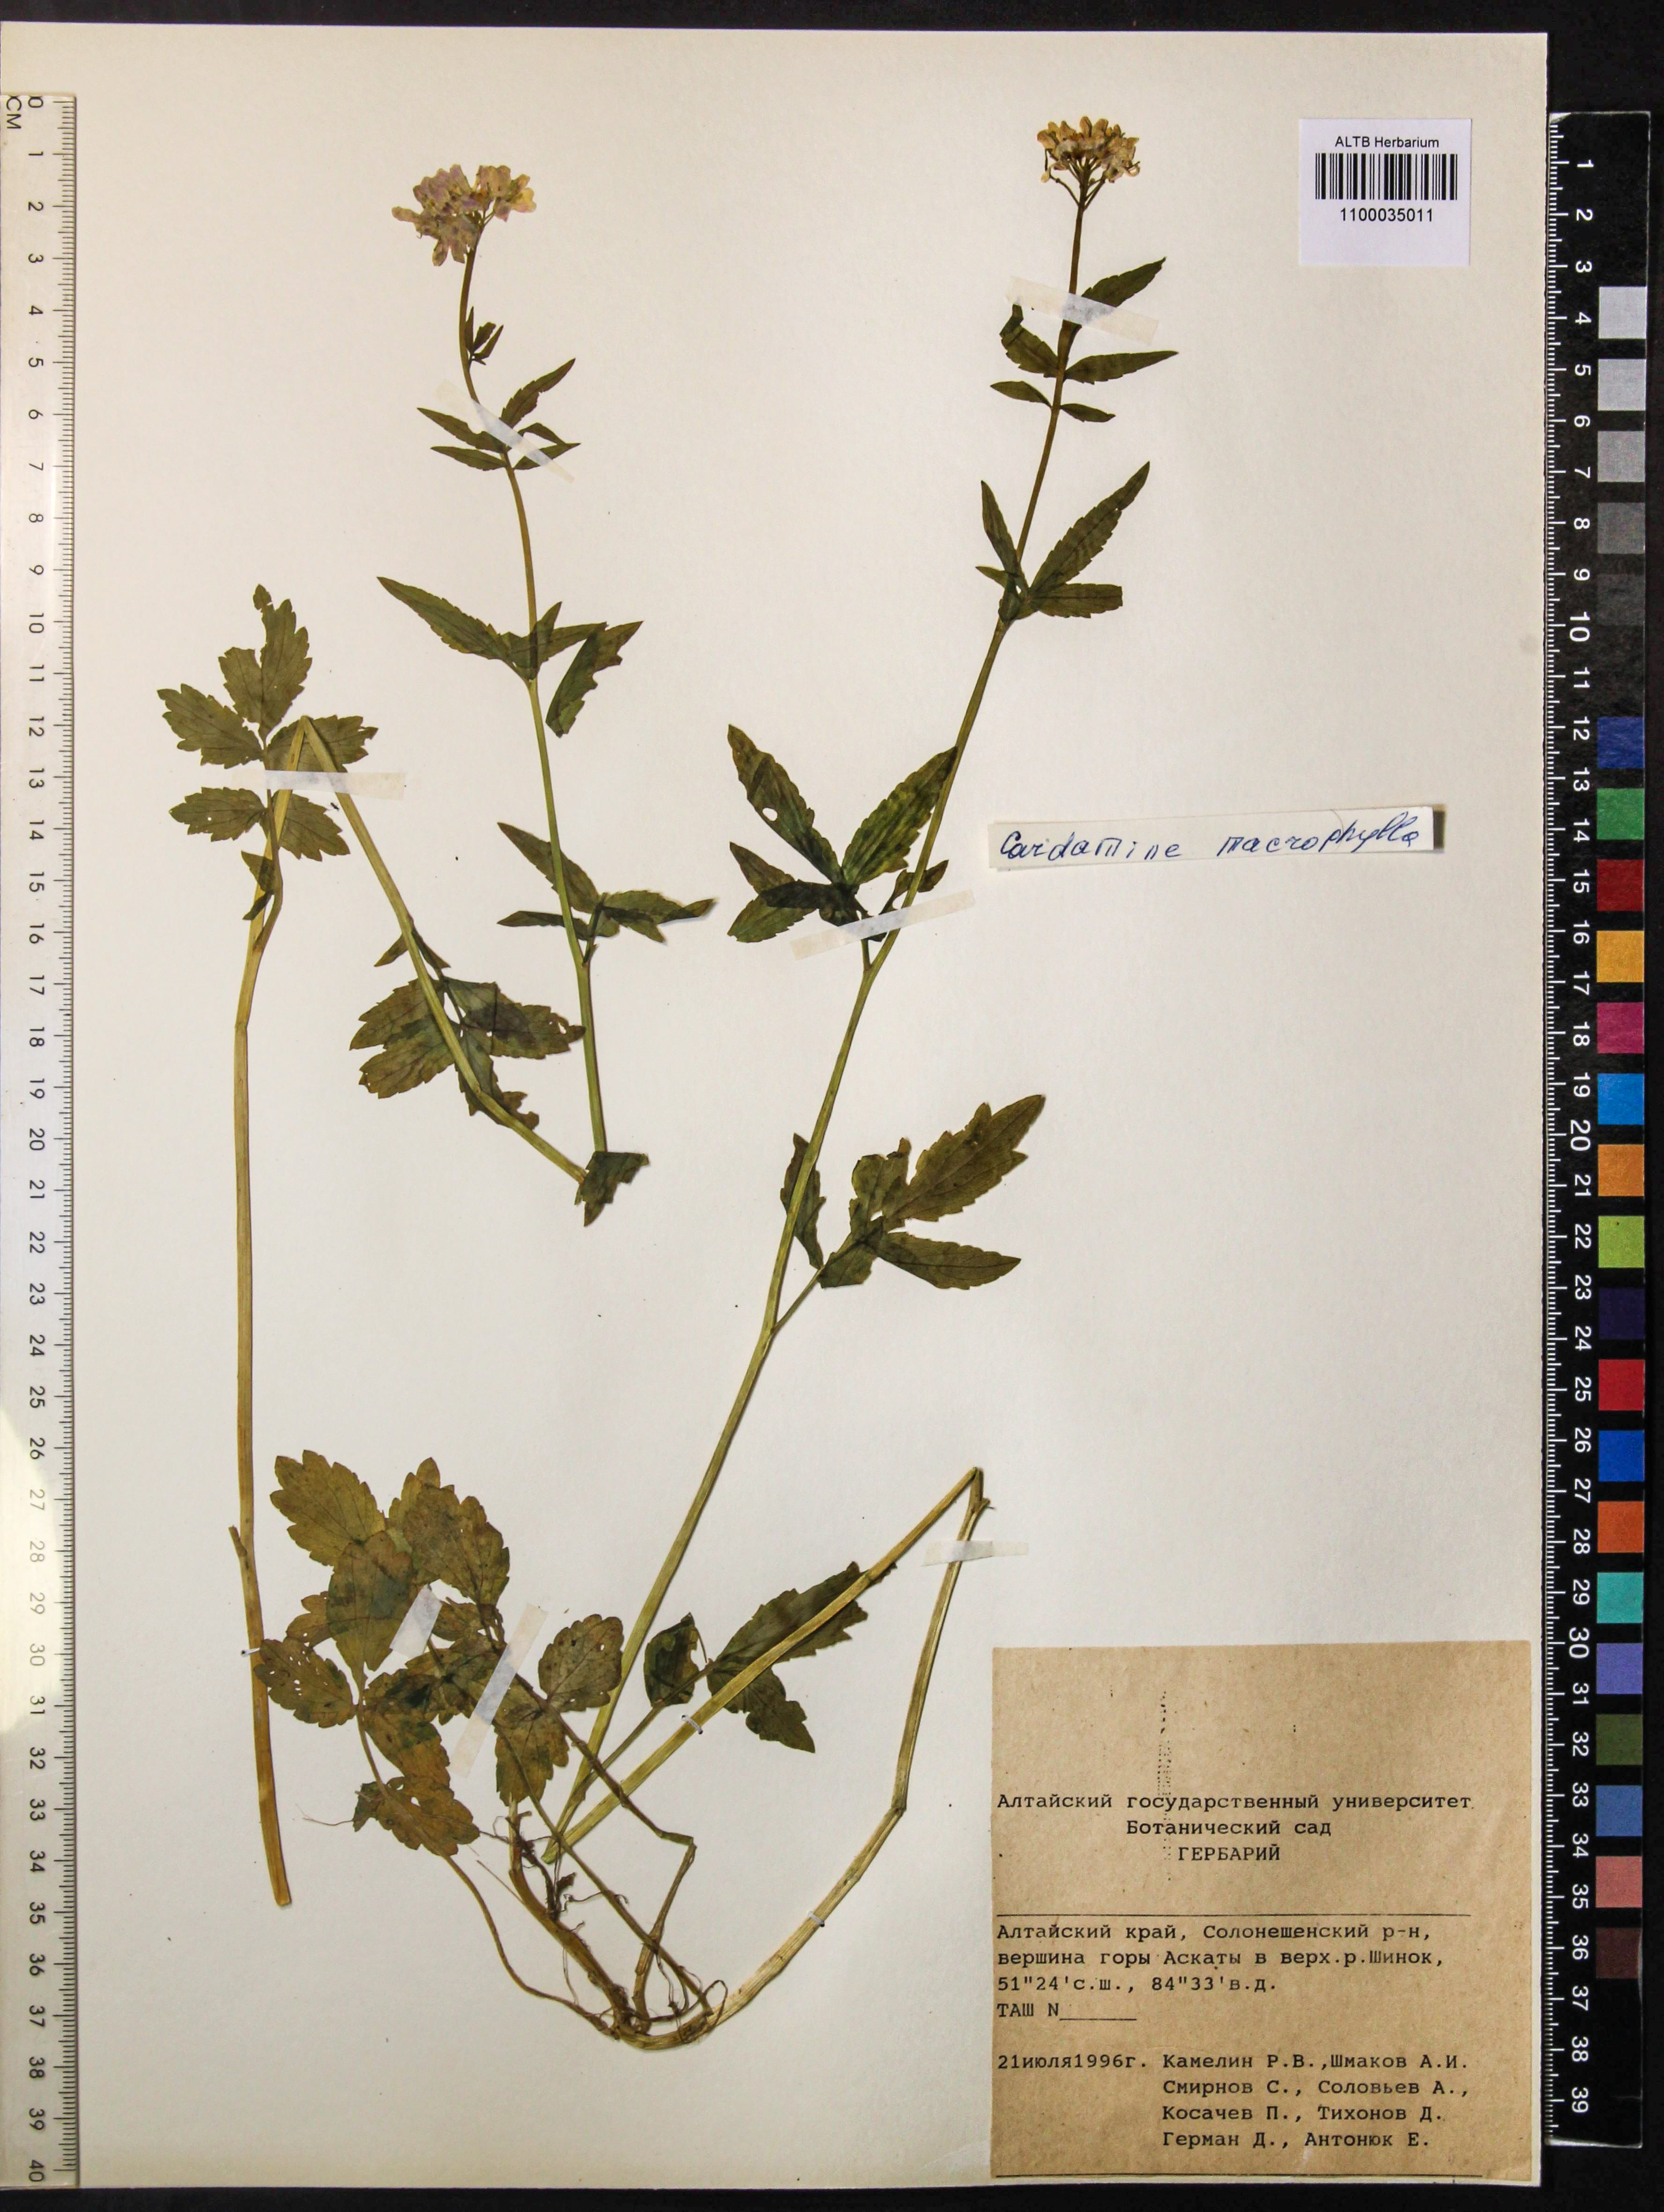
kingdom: Plantae
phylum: Tracheophyta
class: Magnoliopsida
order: Brassicales
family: Brassicaceae
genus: Cardamine
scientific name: Cardamine macrophylla
